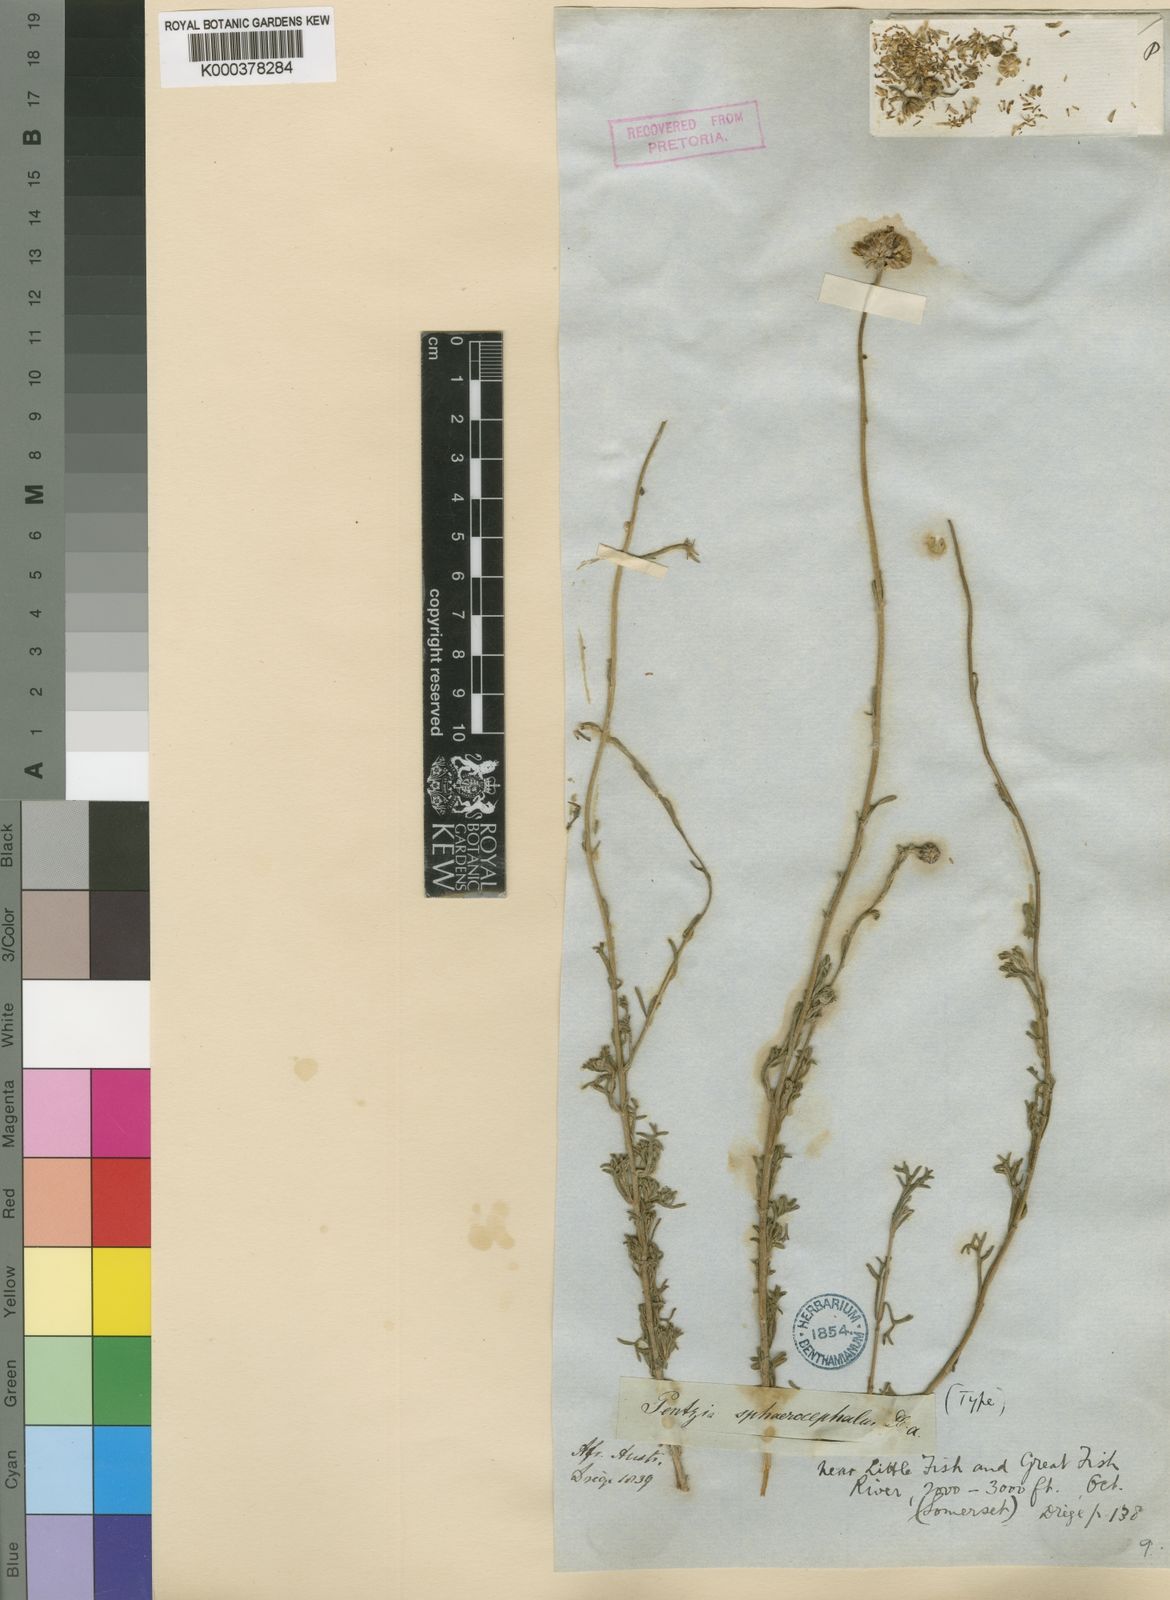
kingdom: Plantae
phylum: Tracheophyta
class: Magnoliopsida
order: Asterales
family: Asteraceae
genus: Pentzia
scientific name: Pentzia sphaerocephala
